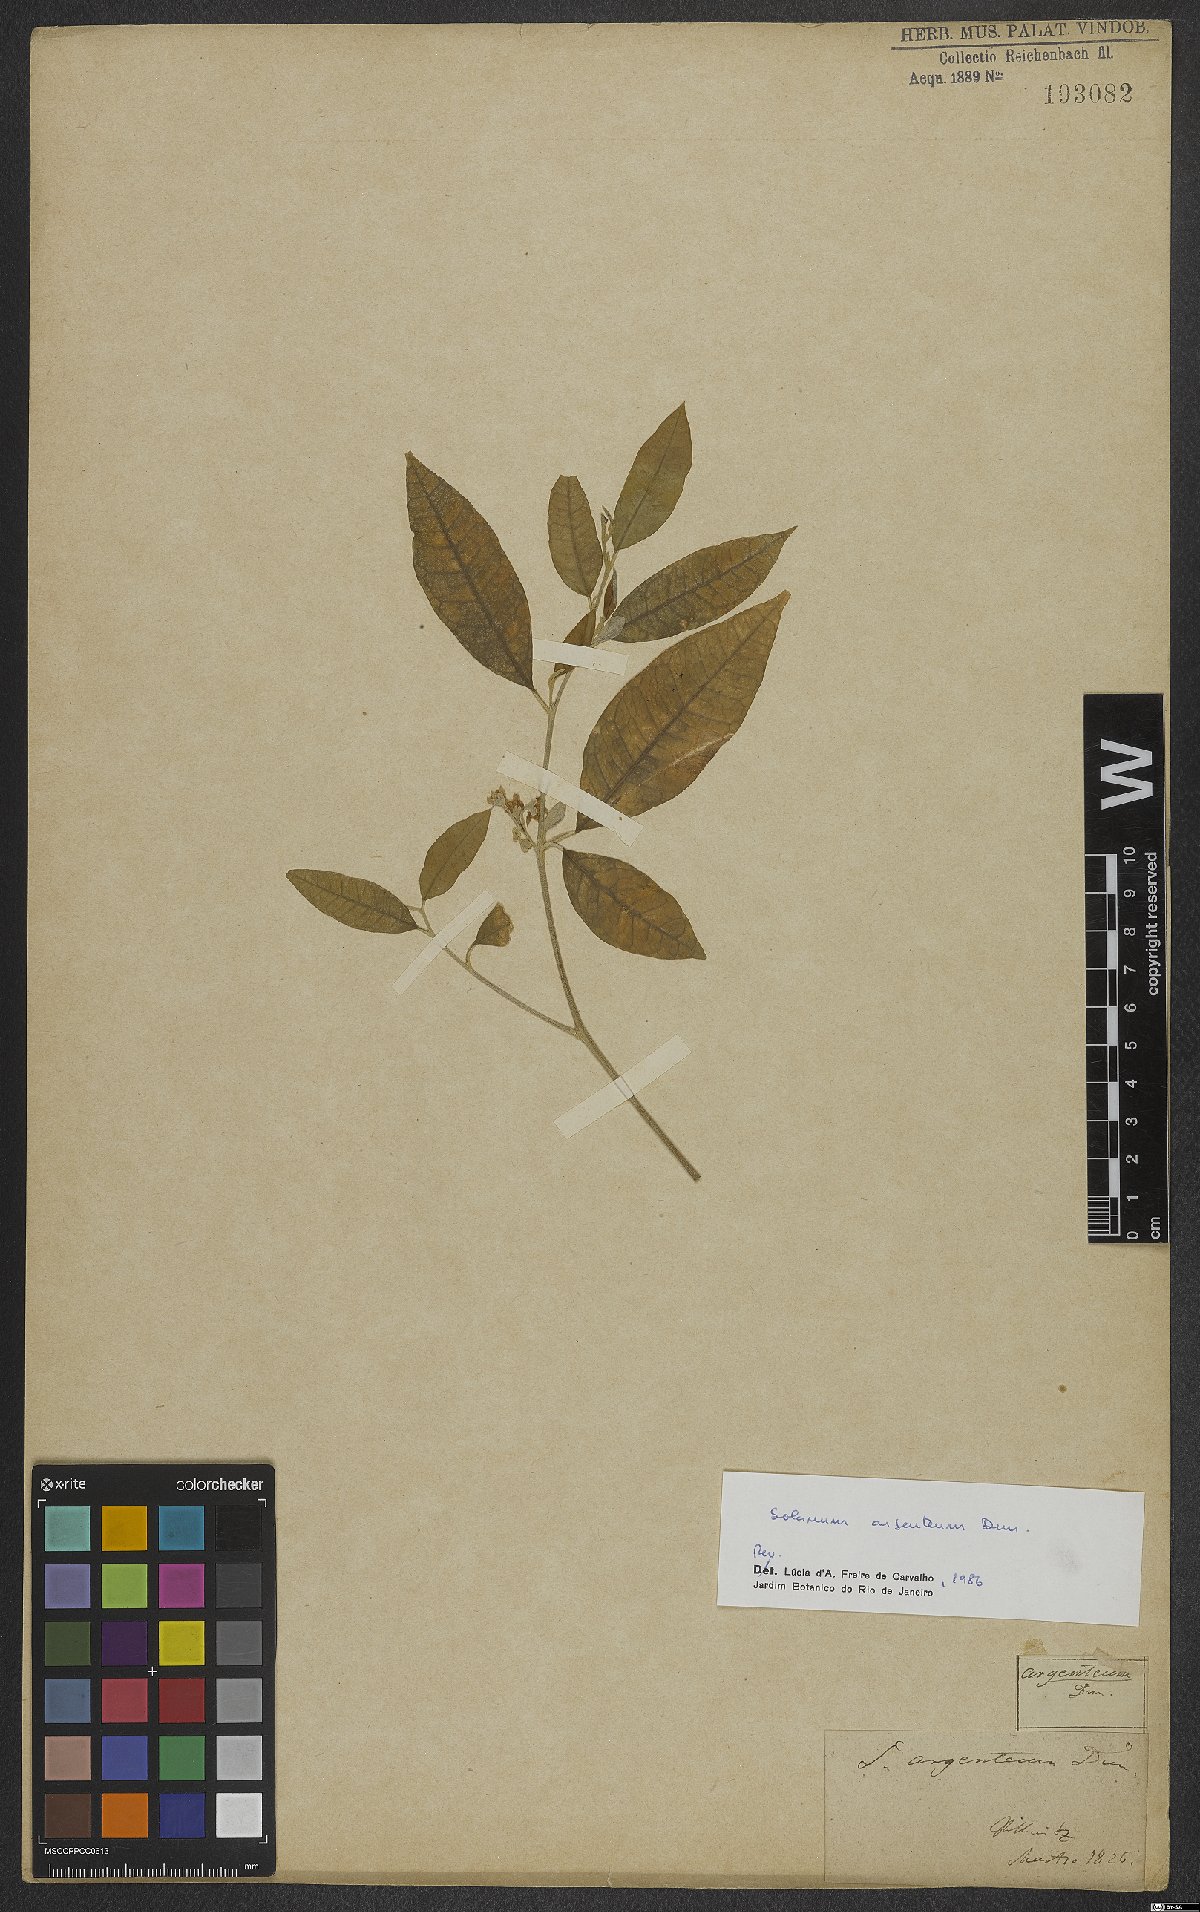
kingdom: Plantae
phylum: Tracheophyta
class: Magnoliopsida
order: Solanales
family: Solanaceae
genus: Solanum
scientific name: Solanum swartzianum
